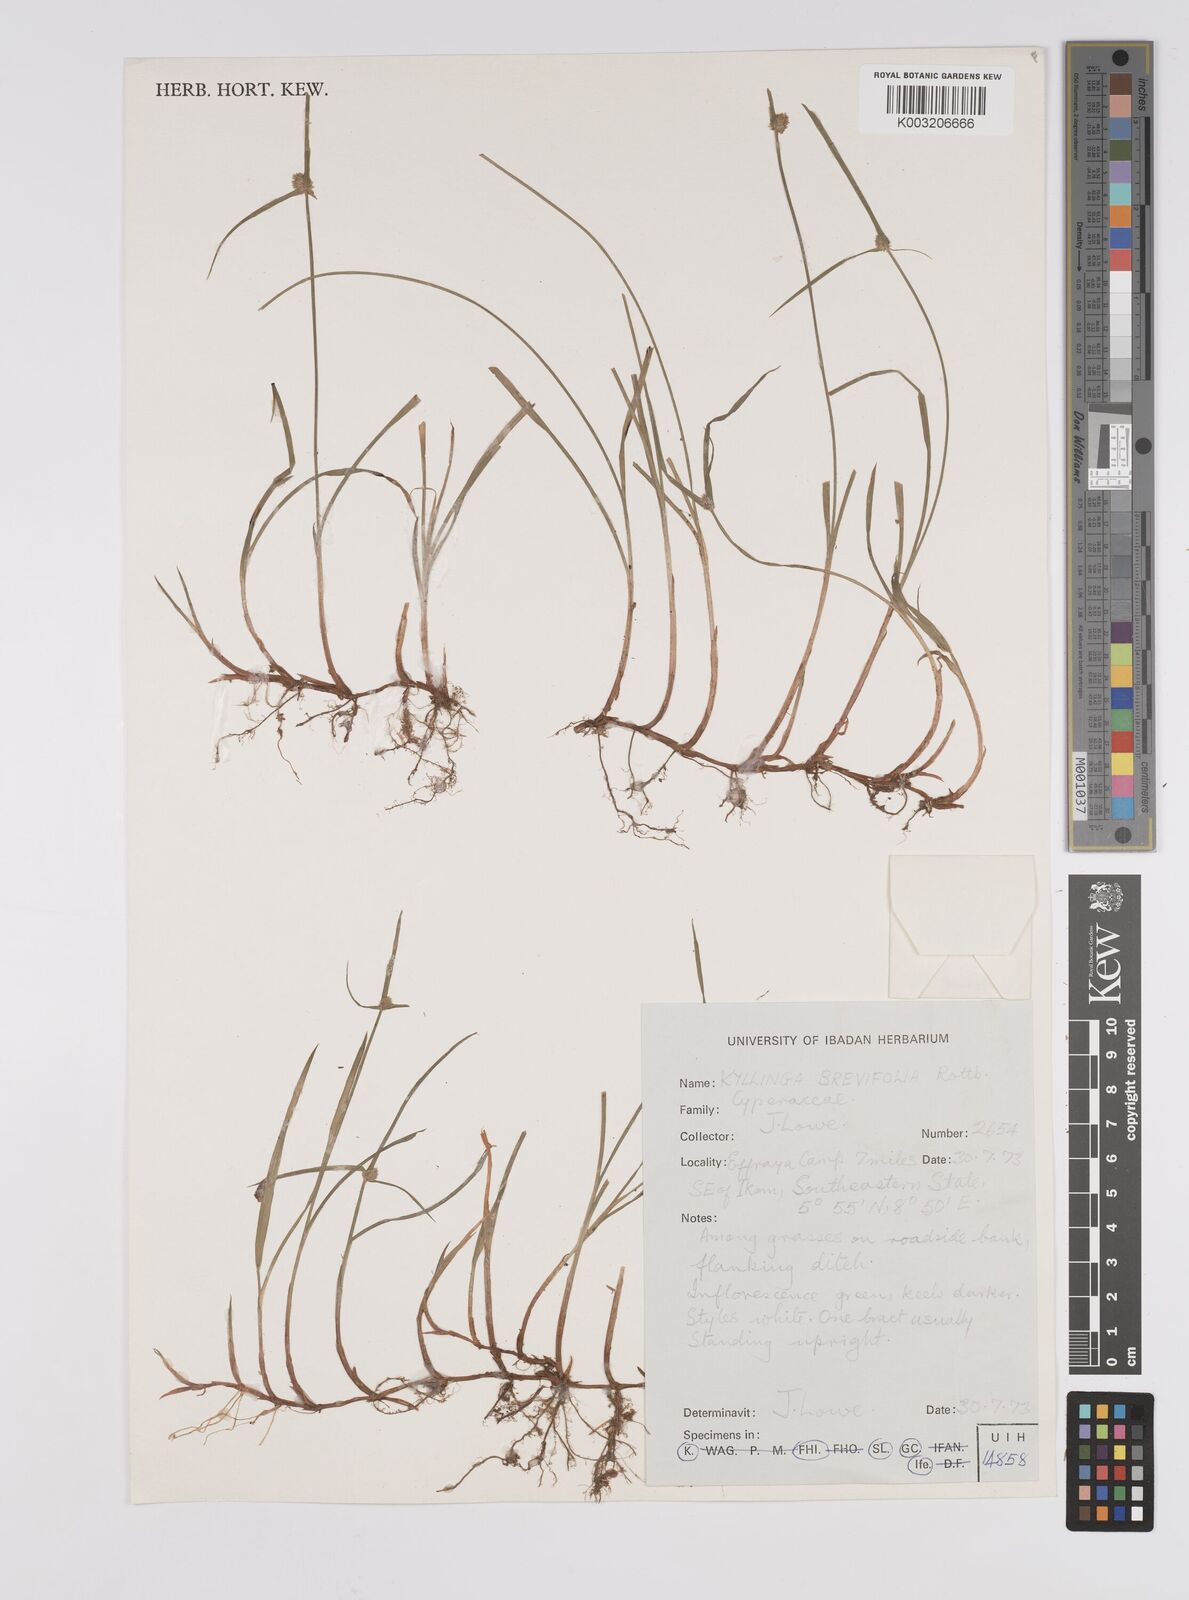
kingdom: Plantae
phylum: Tracheophyta
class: Liliopsida
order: Poales
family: Cyperaceae
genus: Cyperus
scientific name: Cyperus brevifolius
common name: Globe kyllinga
